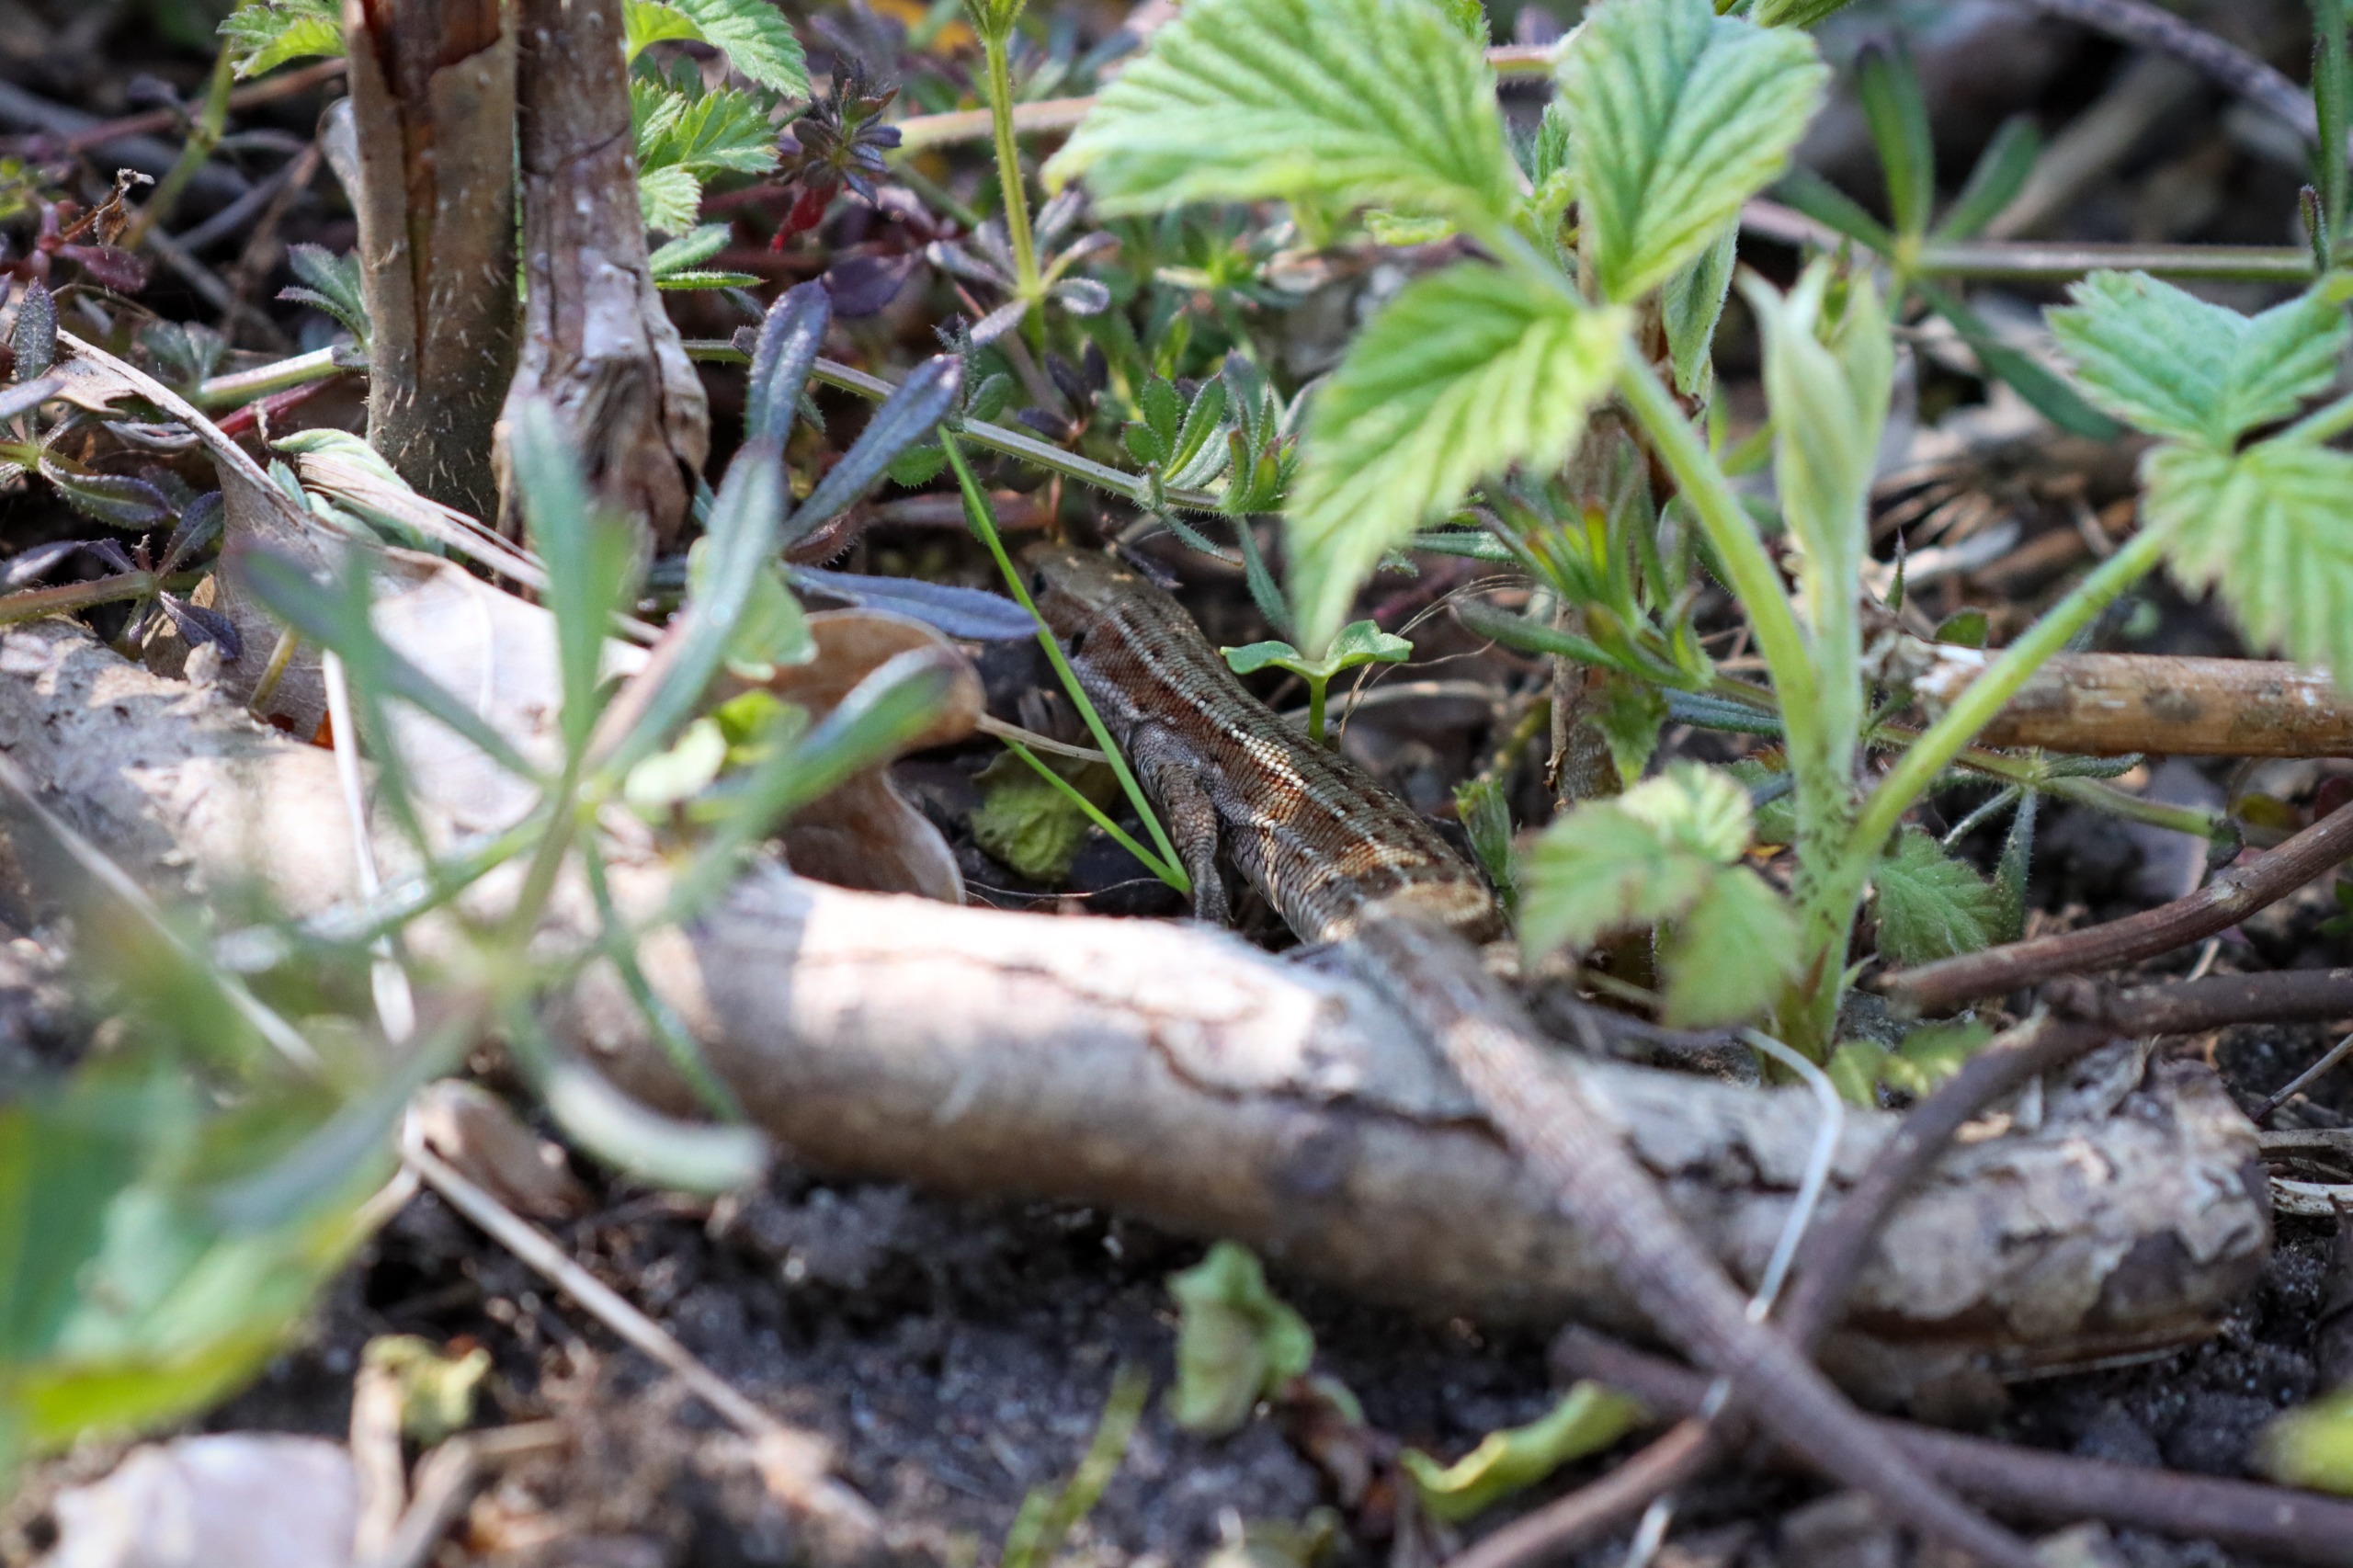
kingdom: Animalia
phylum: Chordata
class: Squamata
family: Lacertidae
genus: Zootoca
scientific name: Zootoca vivipara
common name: Skovfirben
